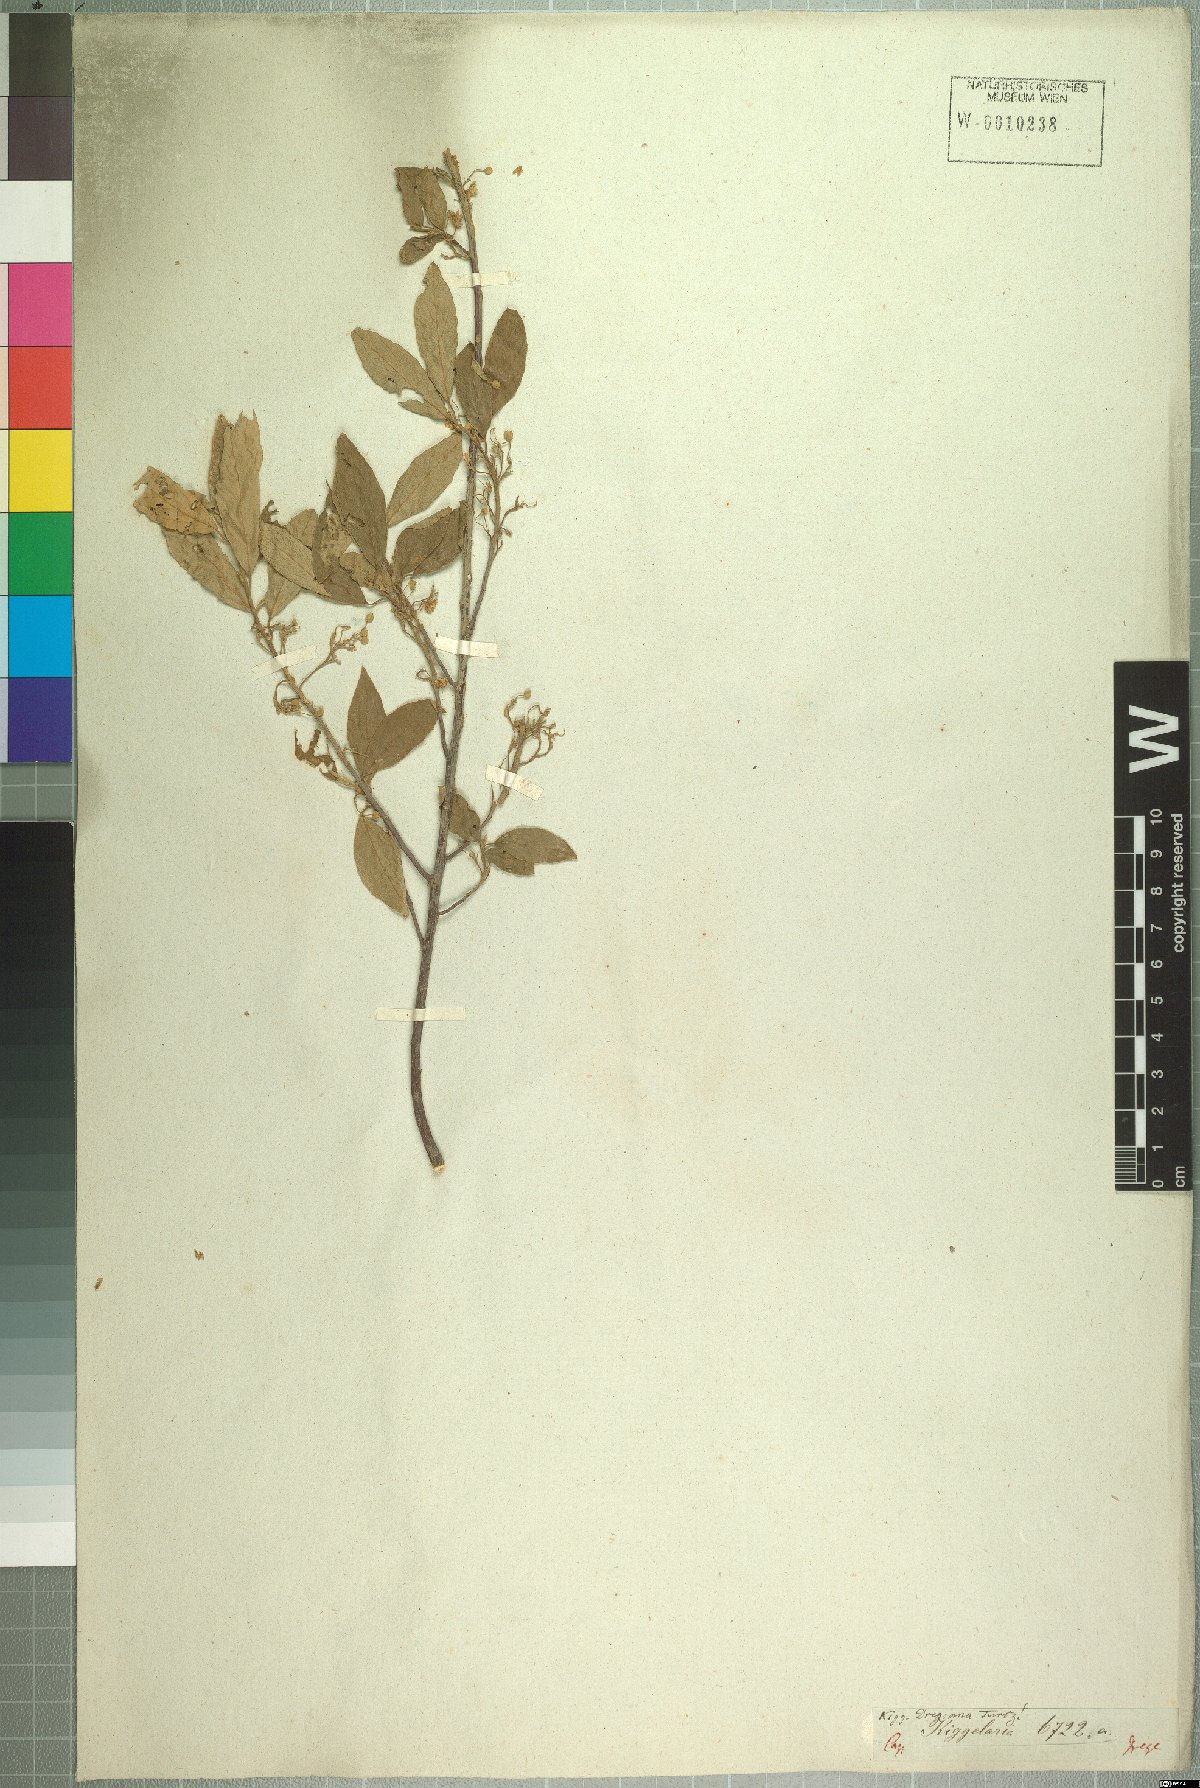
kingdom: Plantae
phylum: Tracheophyta
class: Magnoliopsida
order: Malpighiales
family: Achariaceae
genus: Kiggelaria
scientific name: Kiggelaria africana
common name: Wild peach
